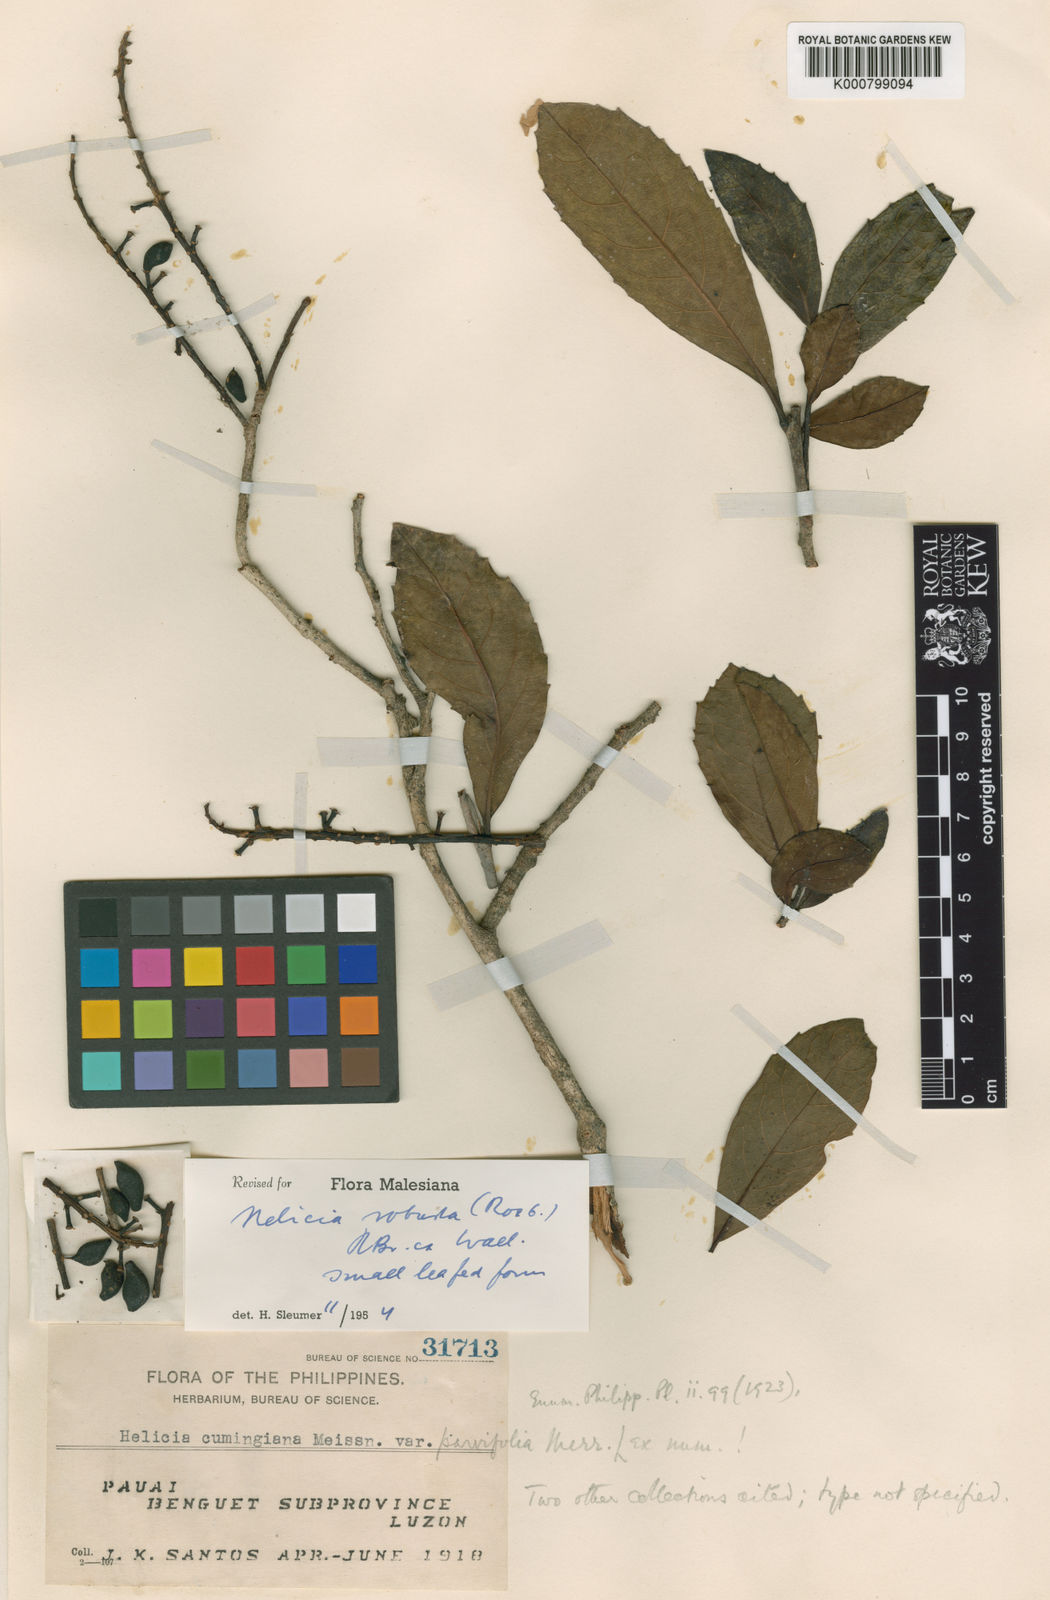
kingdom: Plantae
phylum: Tracheophyta
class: Magnoliopsida
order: Proteales
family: Proteaceae
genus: Helicia
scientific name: Helicia
